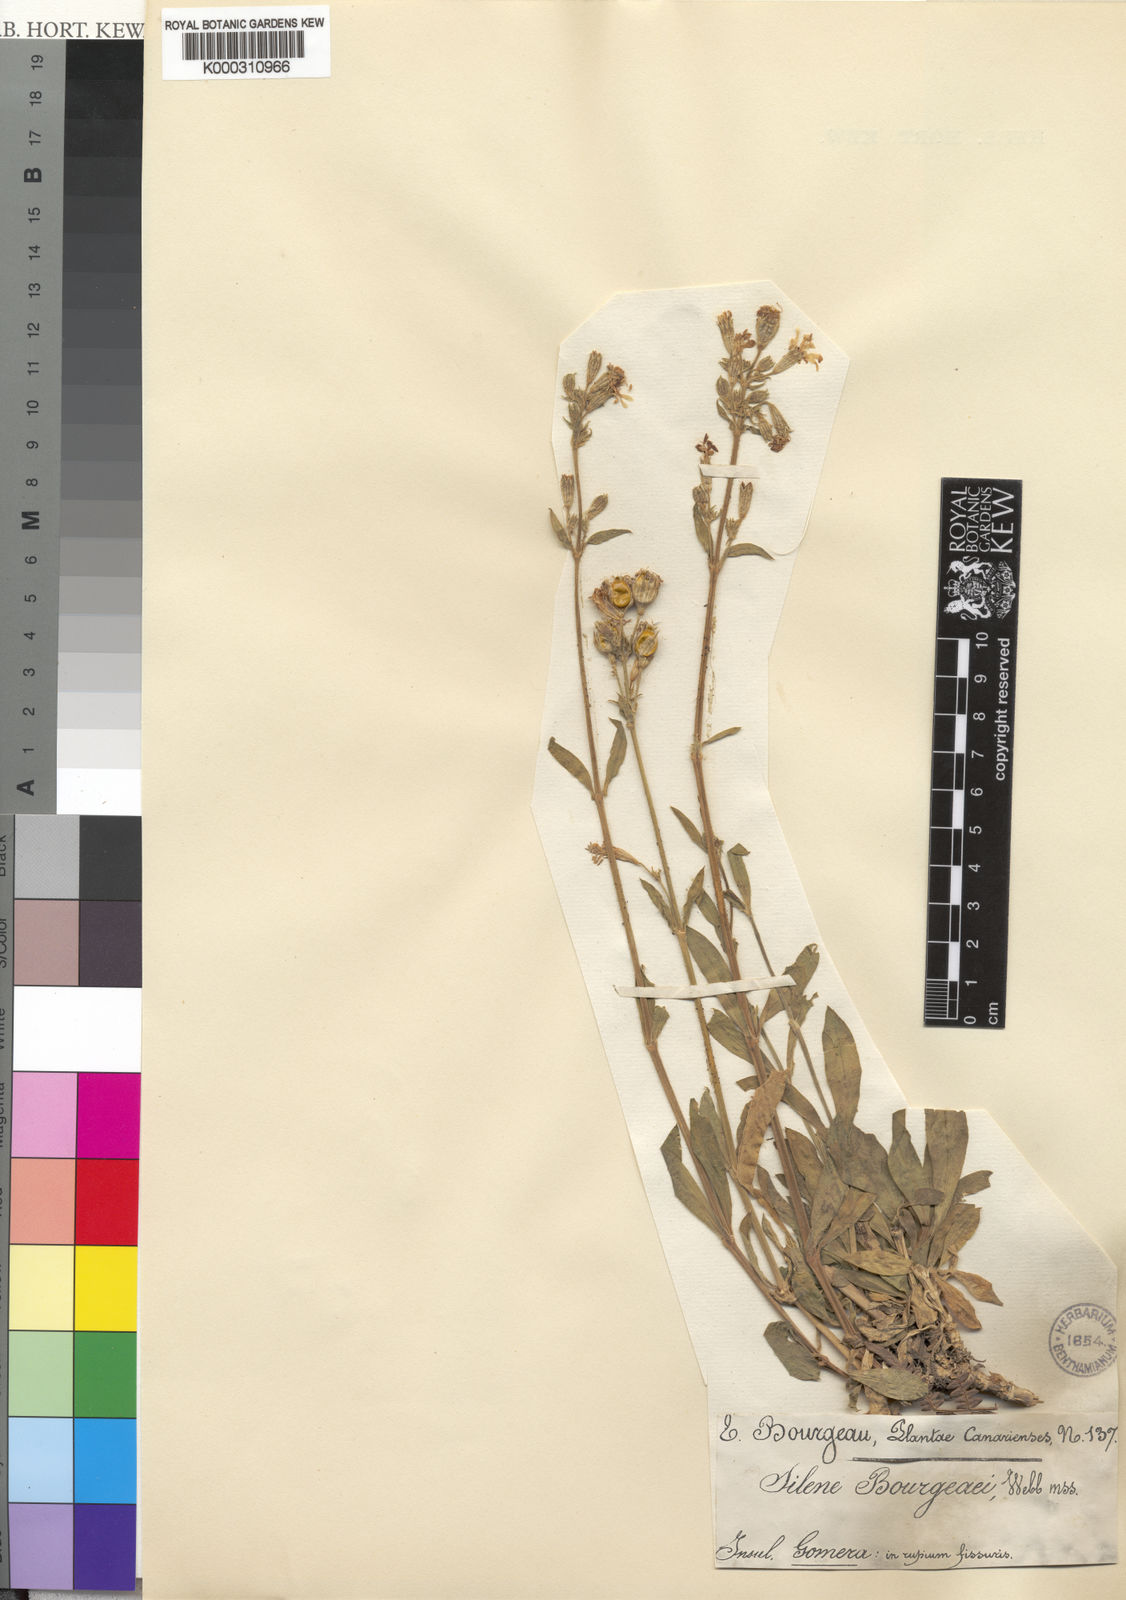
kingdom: Plantae
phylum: Tracheophyta
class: Magnoliopsida
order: Caryophyllales
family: Caryophyllaceae
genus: Silene
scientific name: Silene
